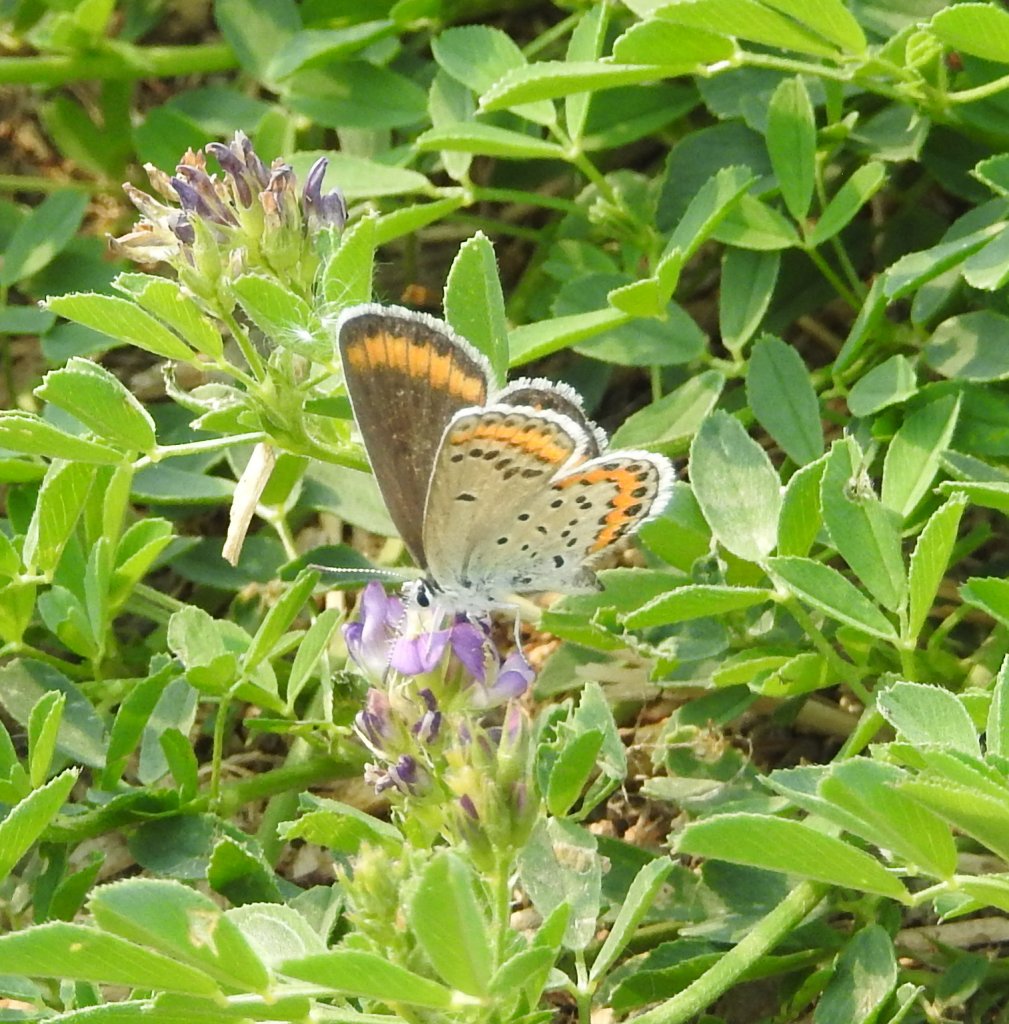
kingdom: Animalia
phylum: Arthropoda
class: Insecta
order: Lepidoptera
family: Lycaenidae
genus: Lycaeides
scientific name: Lycaeides melissa
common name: Melissa Blue
